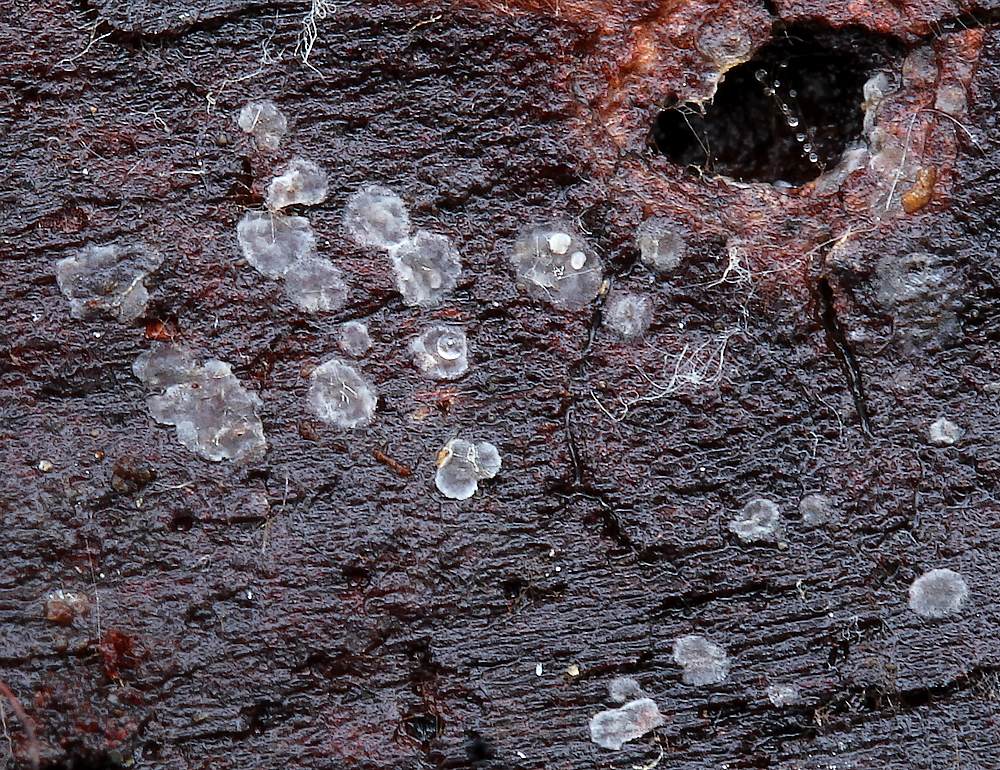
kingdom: Fungi
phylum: Ascomycota
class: Leotiomycetes
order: Helotiales
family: Ascocorticiaceae
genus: Ascocorticium
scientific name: Ascocorticium anomalum
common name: almindelig sækhinde
